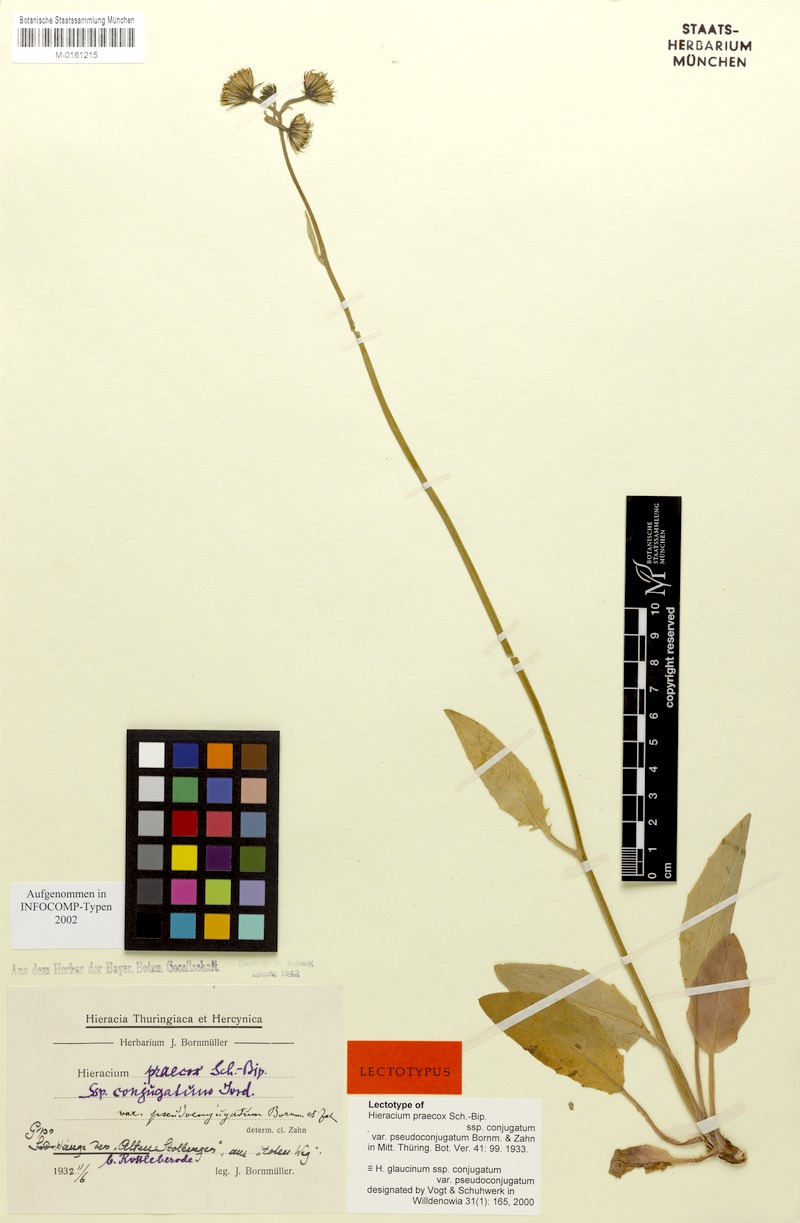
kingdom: Plantae
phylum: Tracheophyta
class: Magnoliopsida
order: Asterales
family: Asteraceae
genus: Hieracium
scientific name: Hieracium glaucinum
